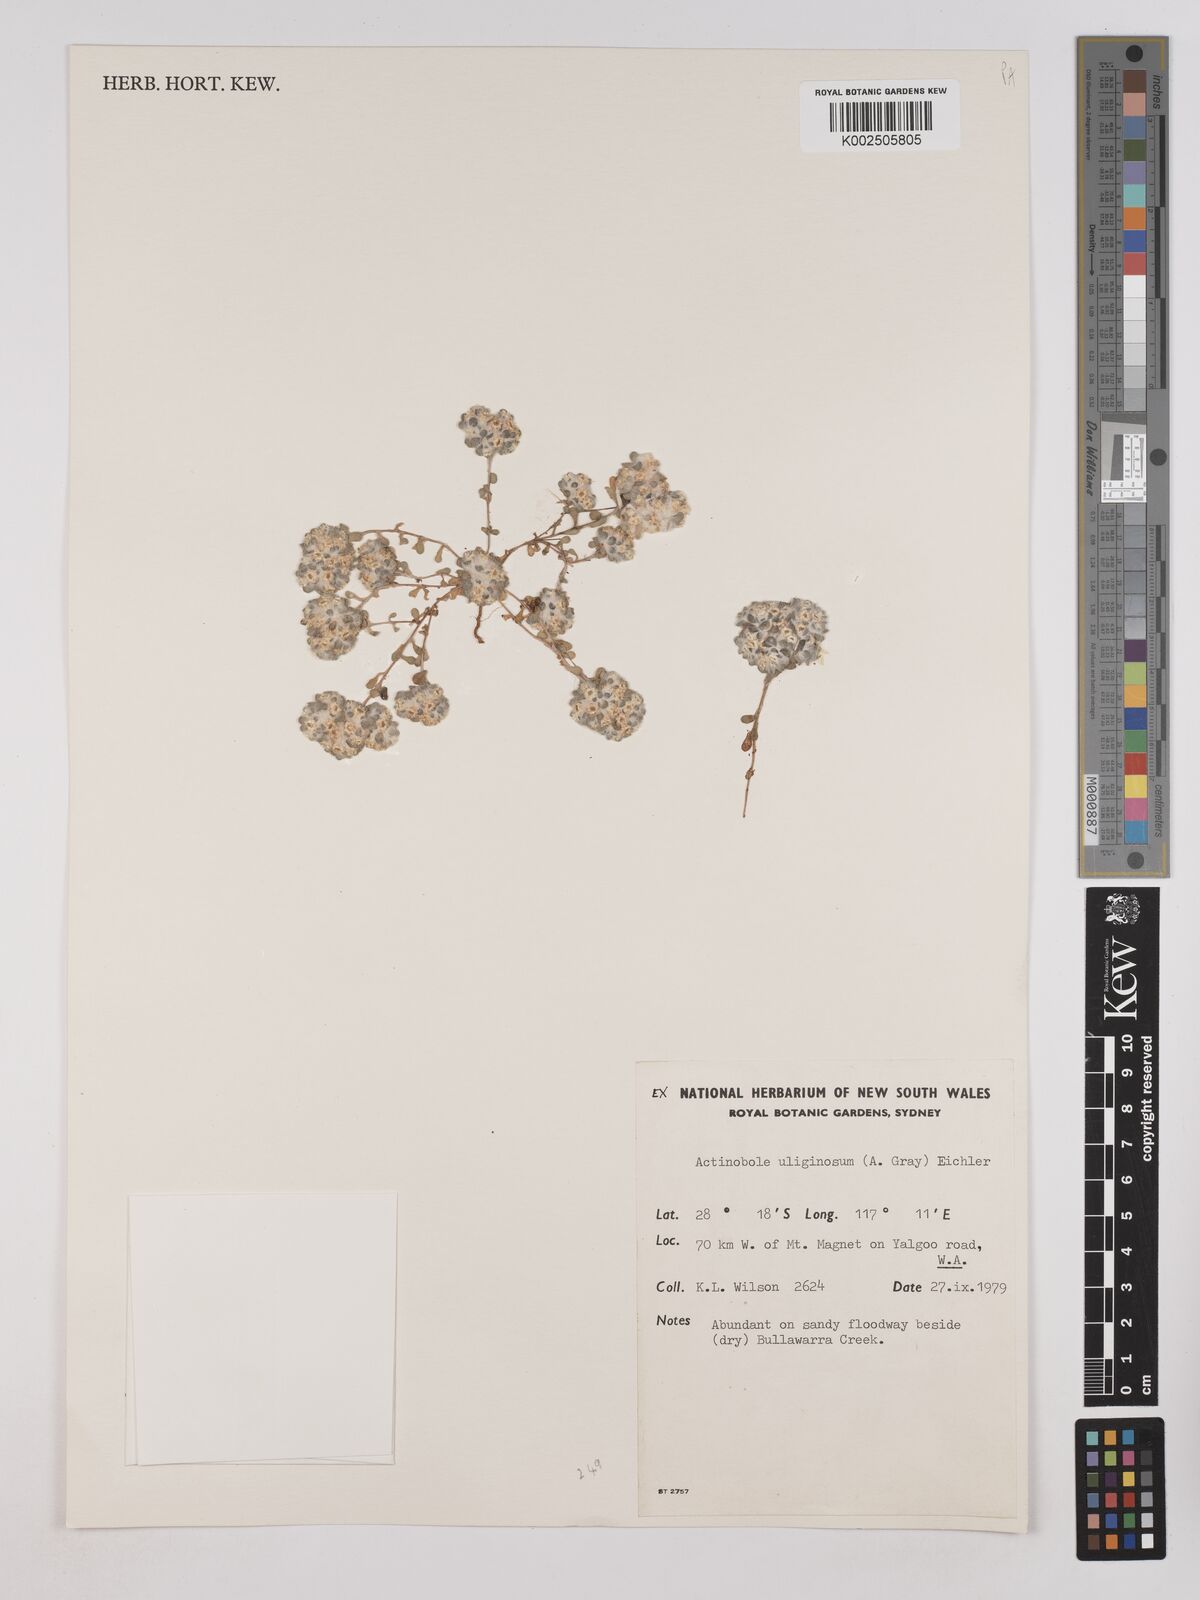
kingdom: Plantae
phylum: Tracheophyta
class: Magnoliopsida
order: Asterales
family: Asteraceae
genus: Actinobole
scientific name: Actinobole uliginosum
